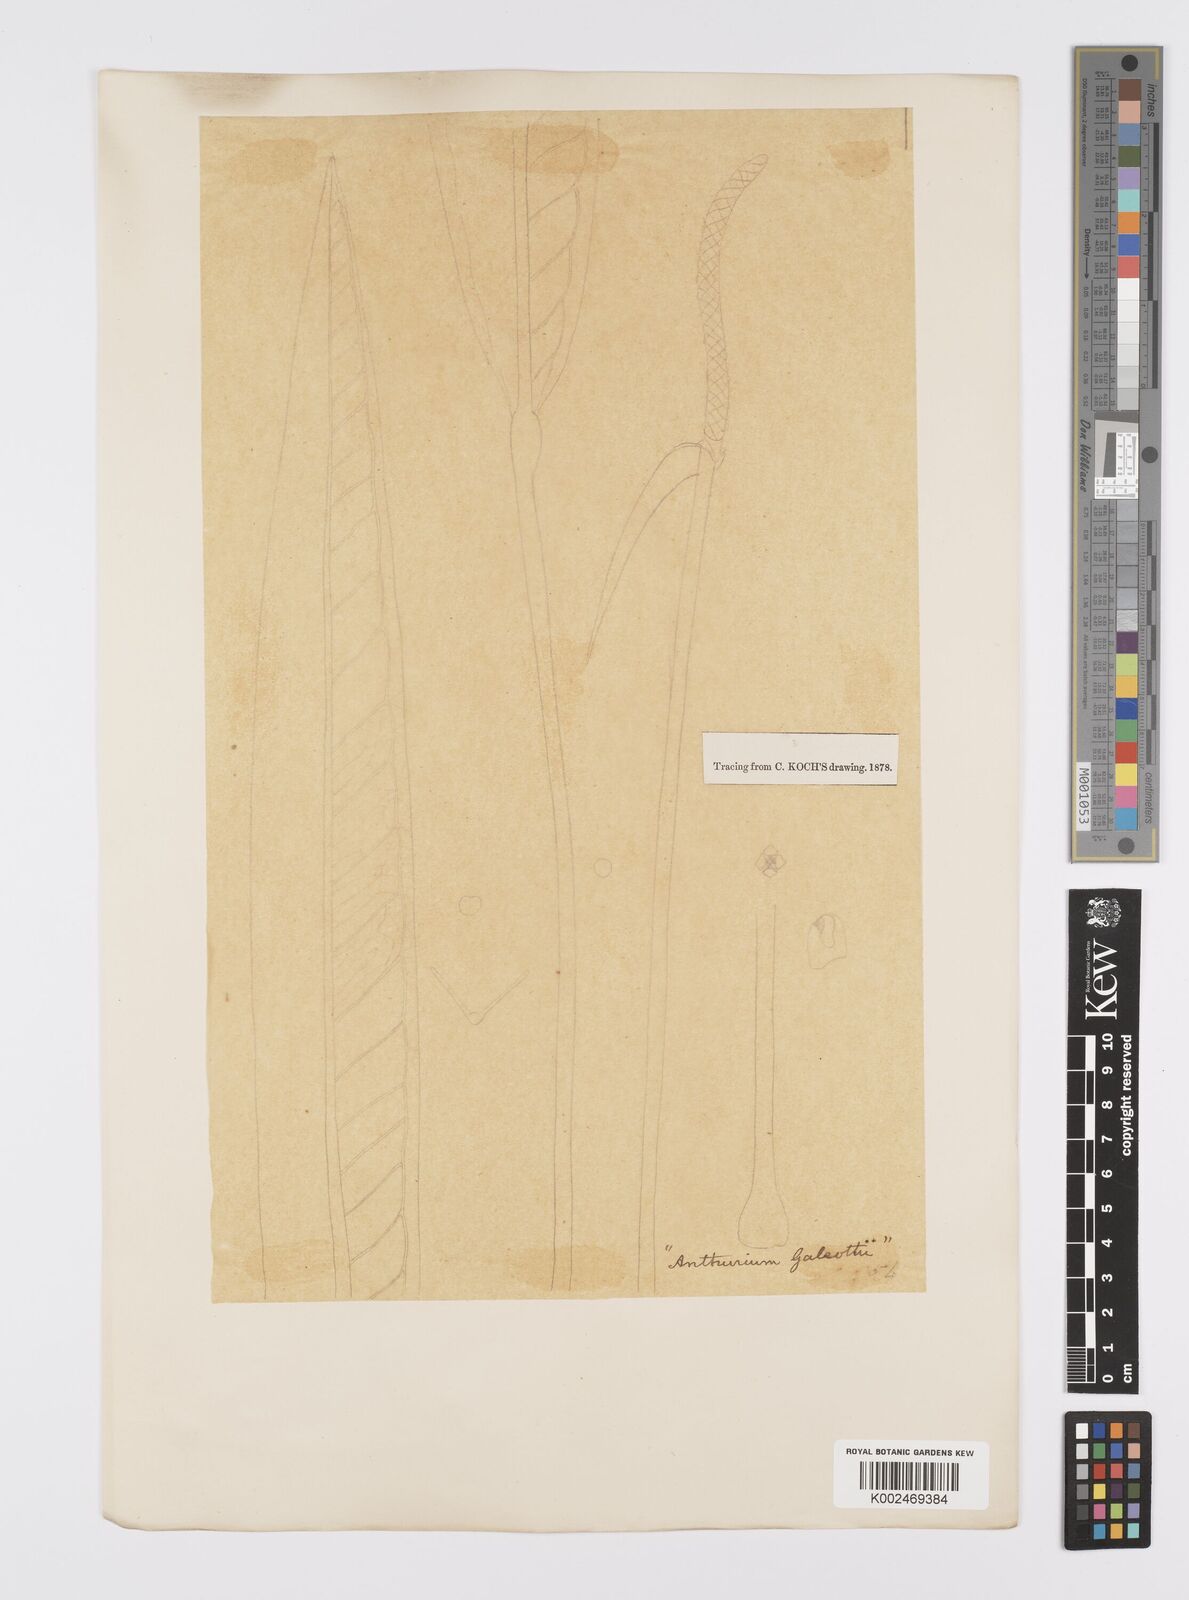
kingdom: Plantae
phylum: Tracheophyta
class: Liliopsida
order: Alismatales
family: Araceae
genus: Anthurium
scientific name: Anthurium galeottii
